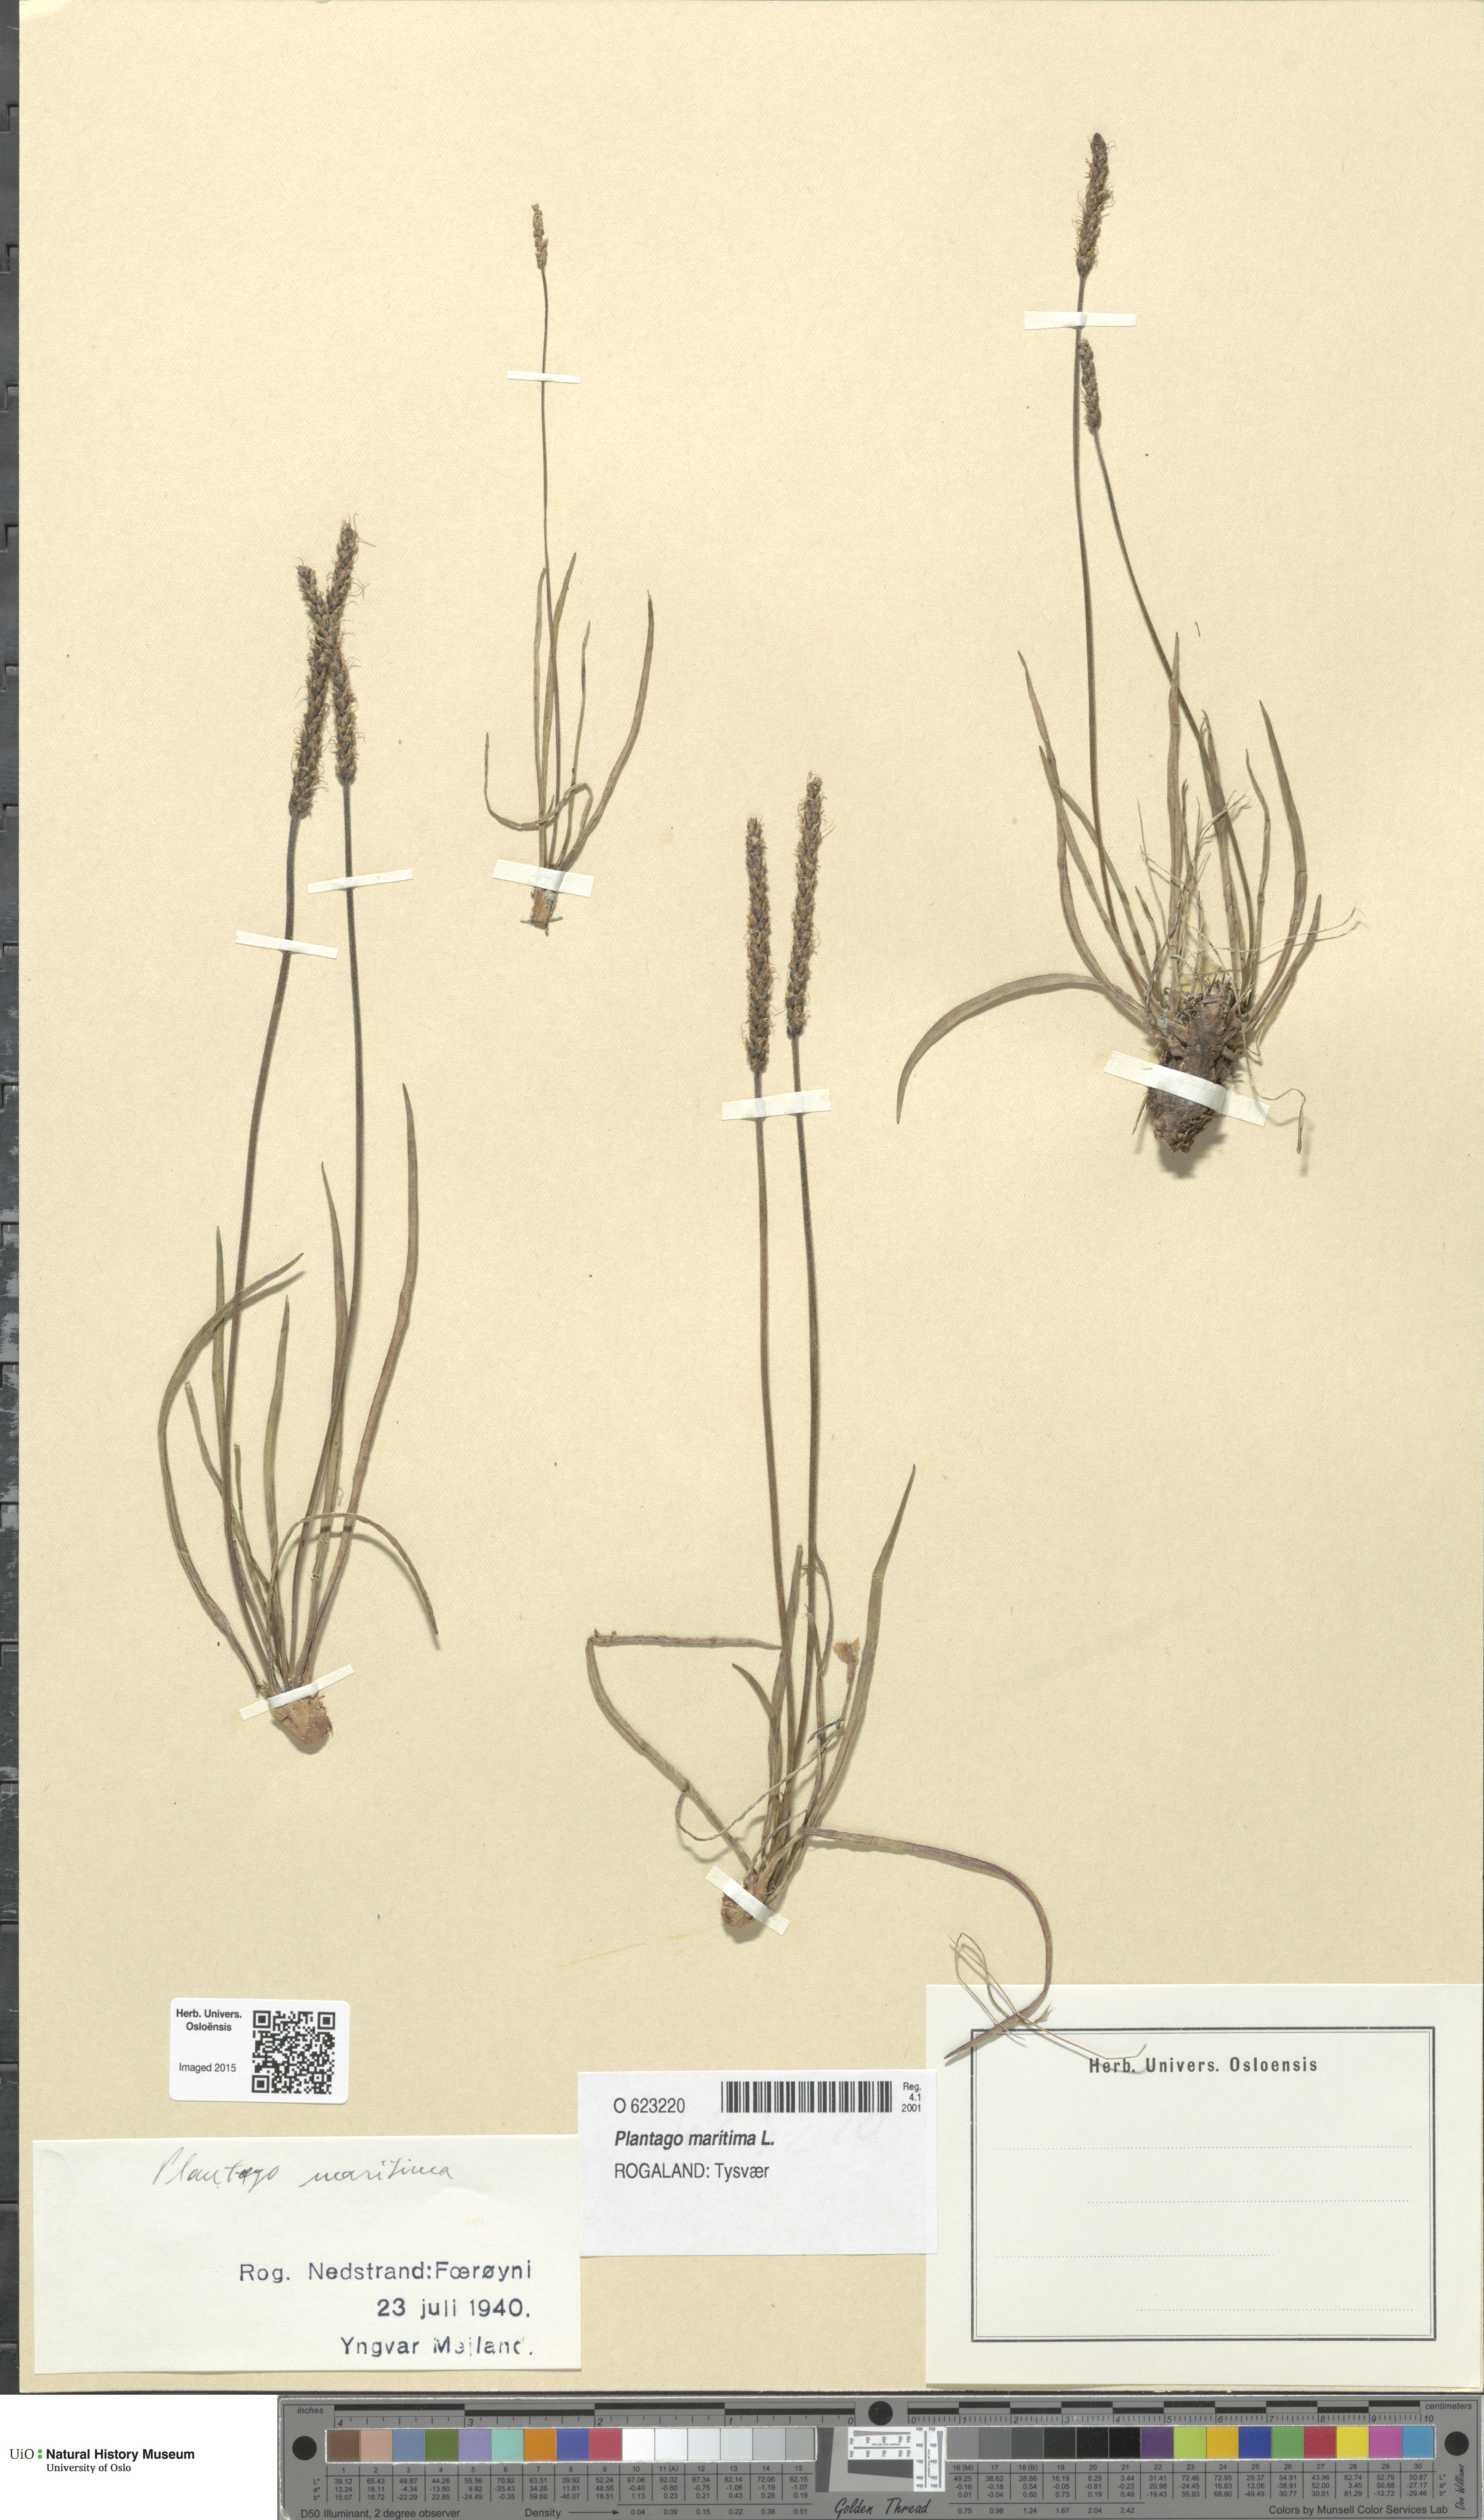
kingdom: Plantae
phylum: Tracheophyta
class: Magnoliopsida
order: Lamiales
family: Plantaginaceae
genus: Plantago
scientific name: Plantago maritima
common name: Sea plantain
